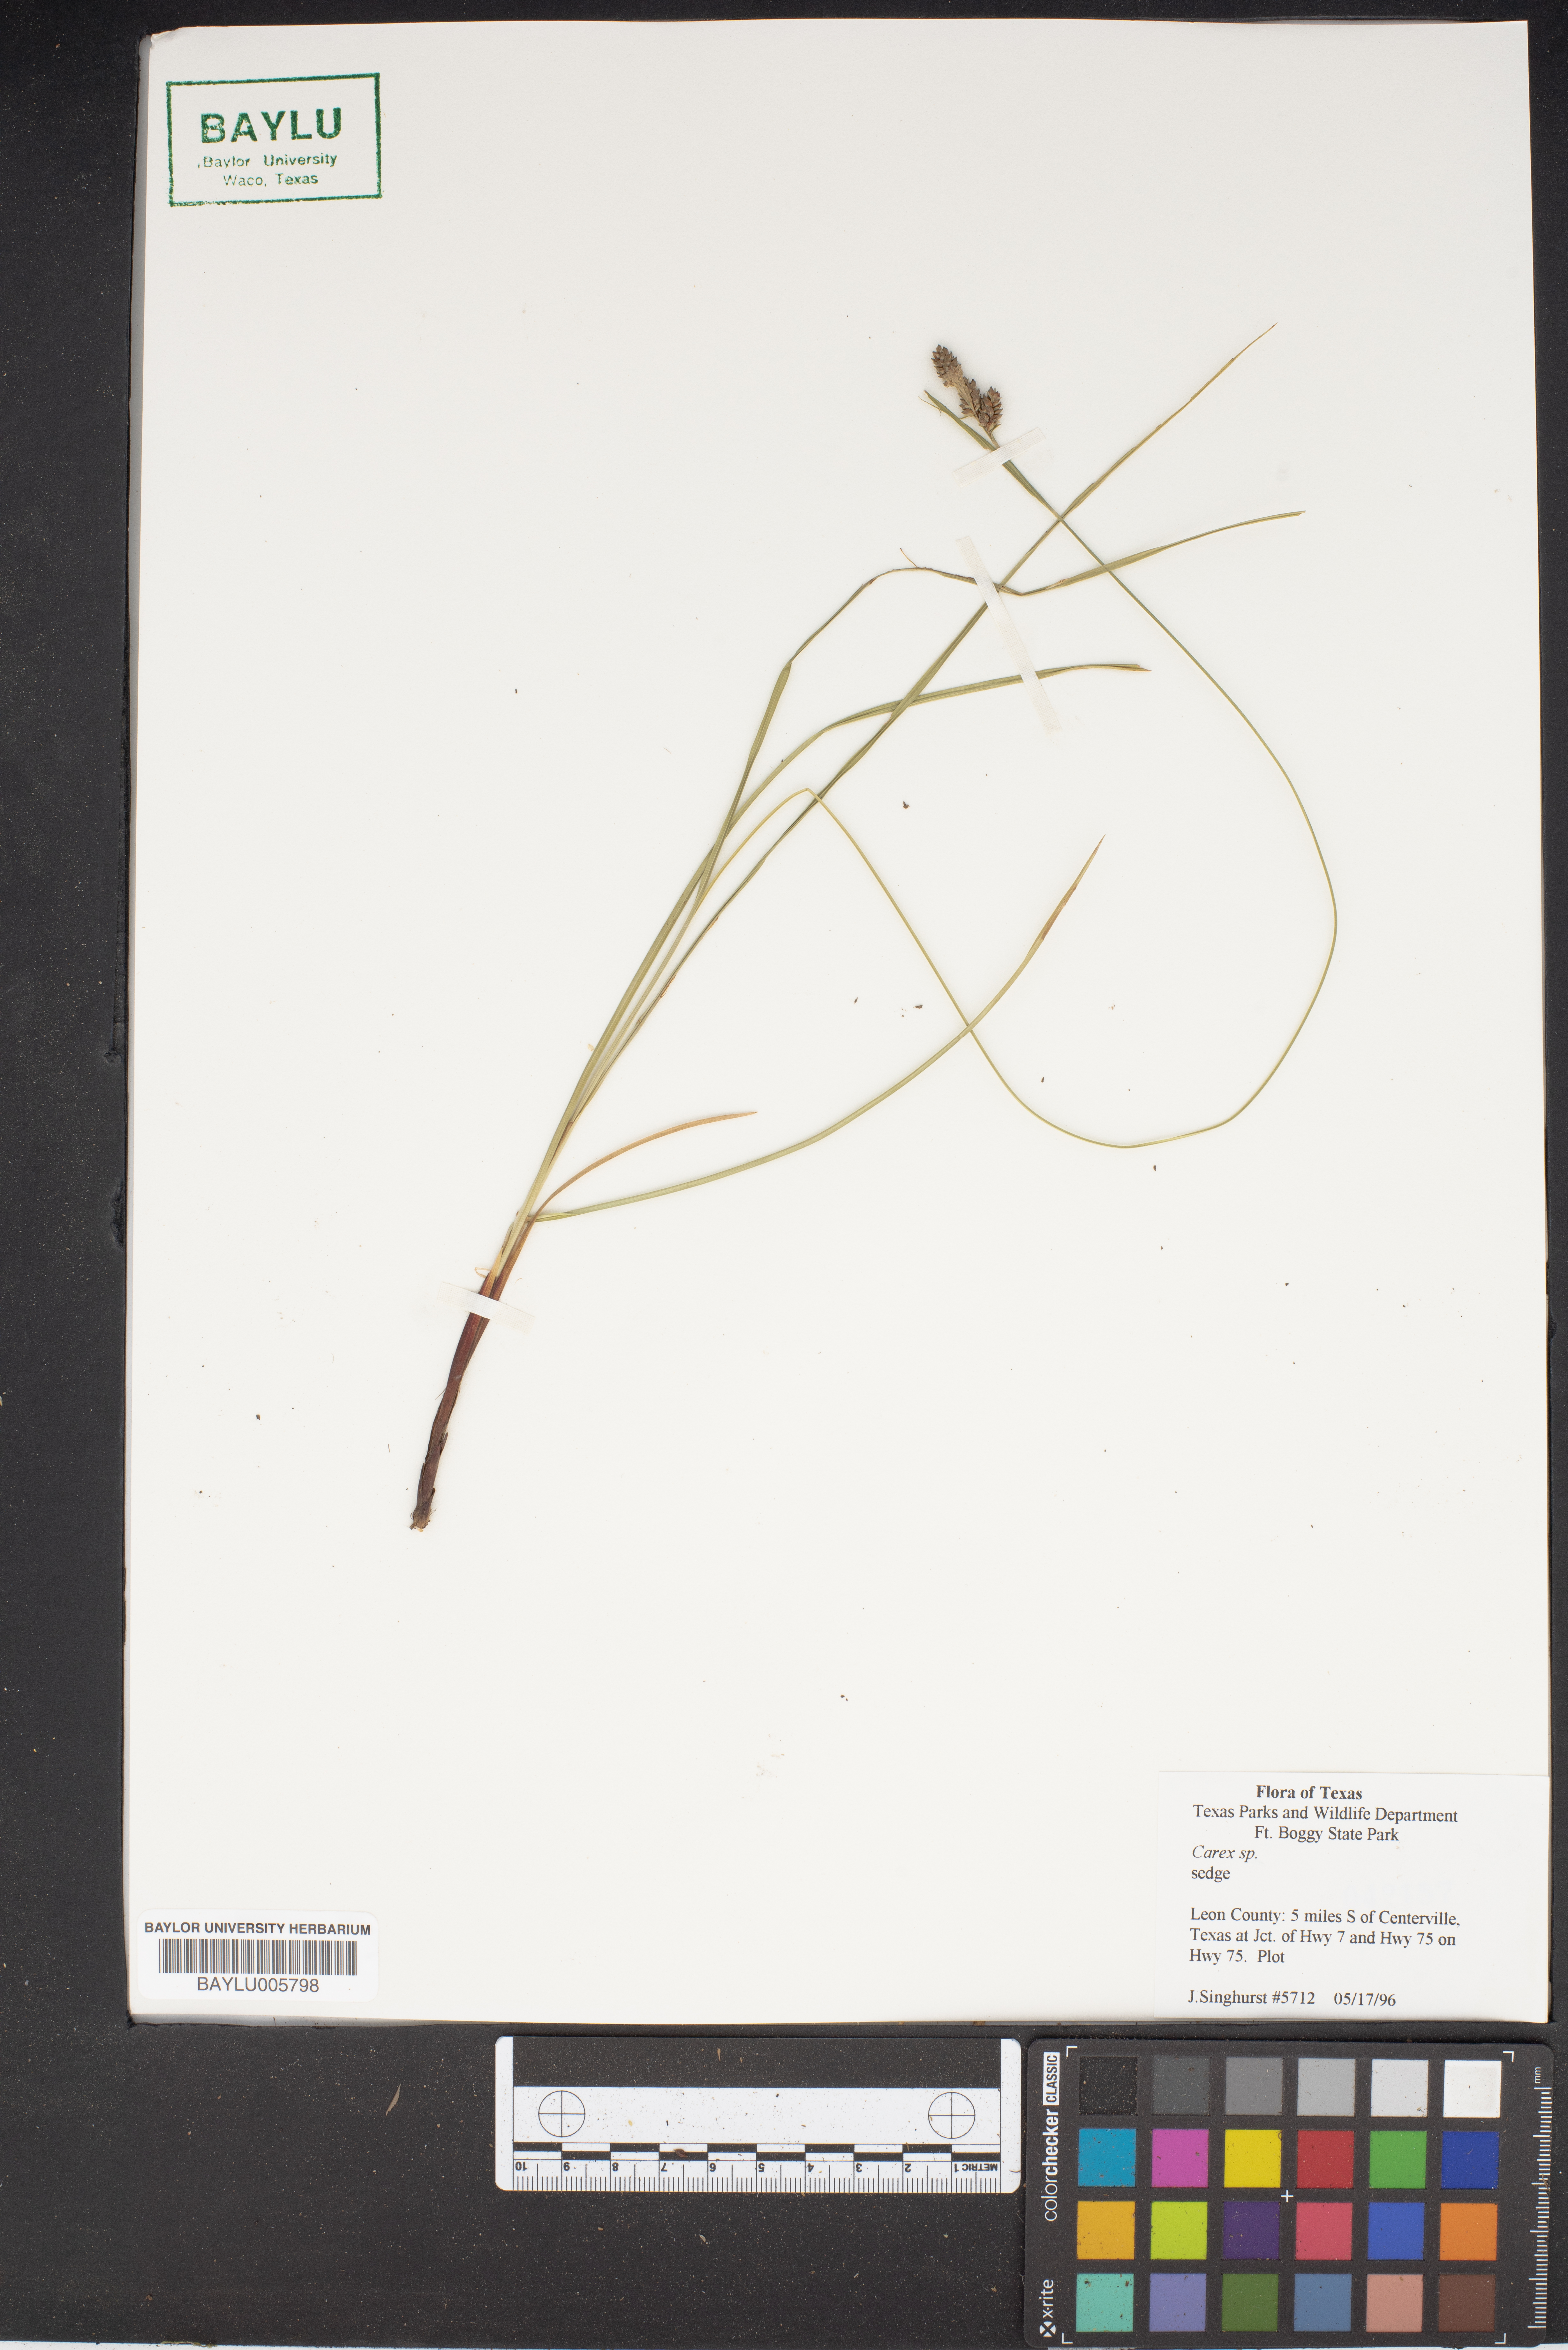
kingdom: Plantae
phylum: Tracheophyta
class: Liliopsida
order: Poales
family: Cyperaceae
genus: Carex
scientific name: Carex
